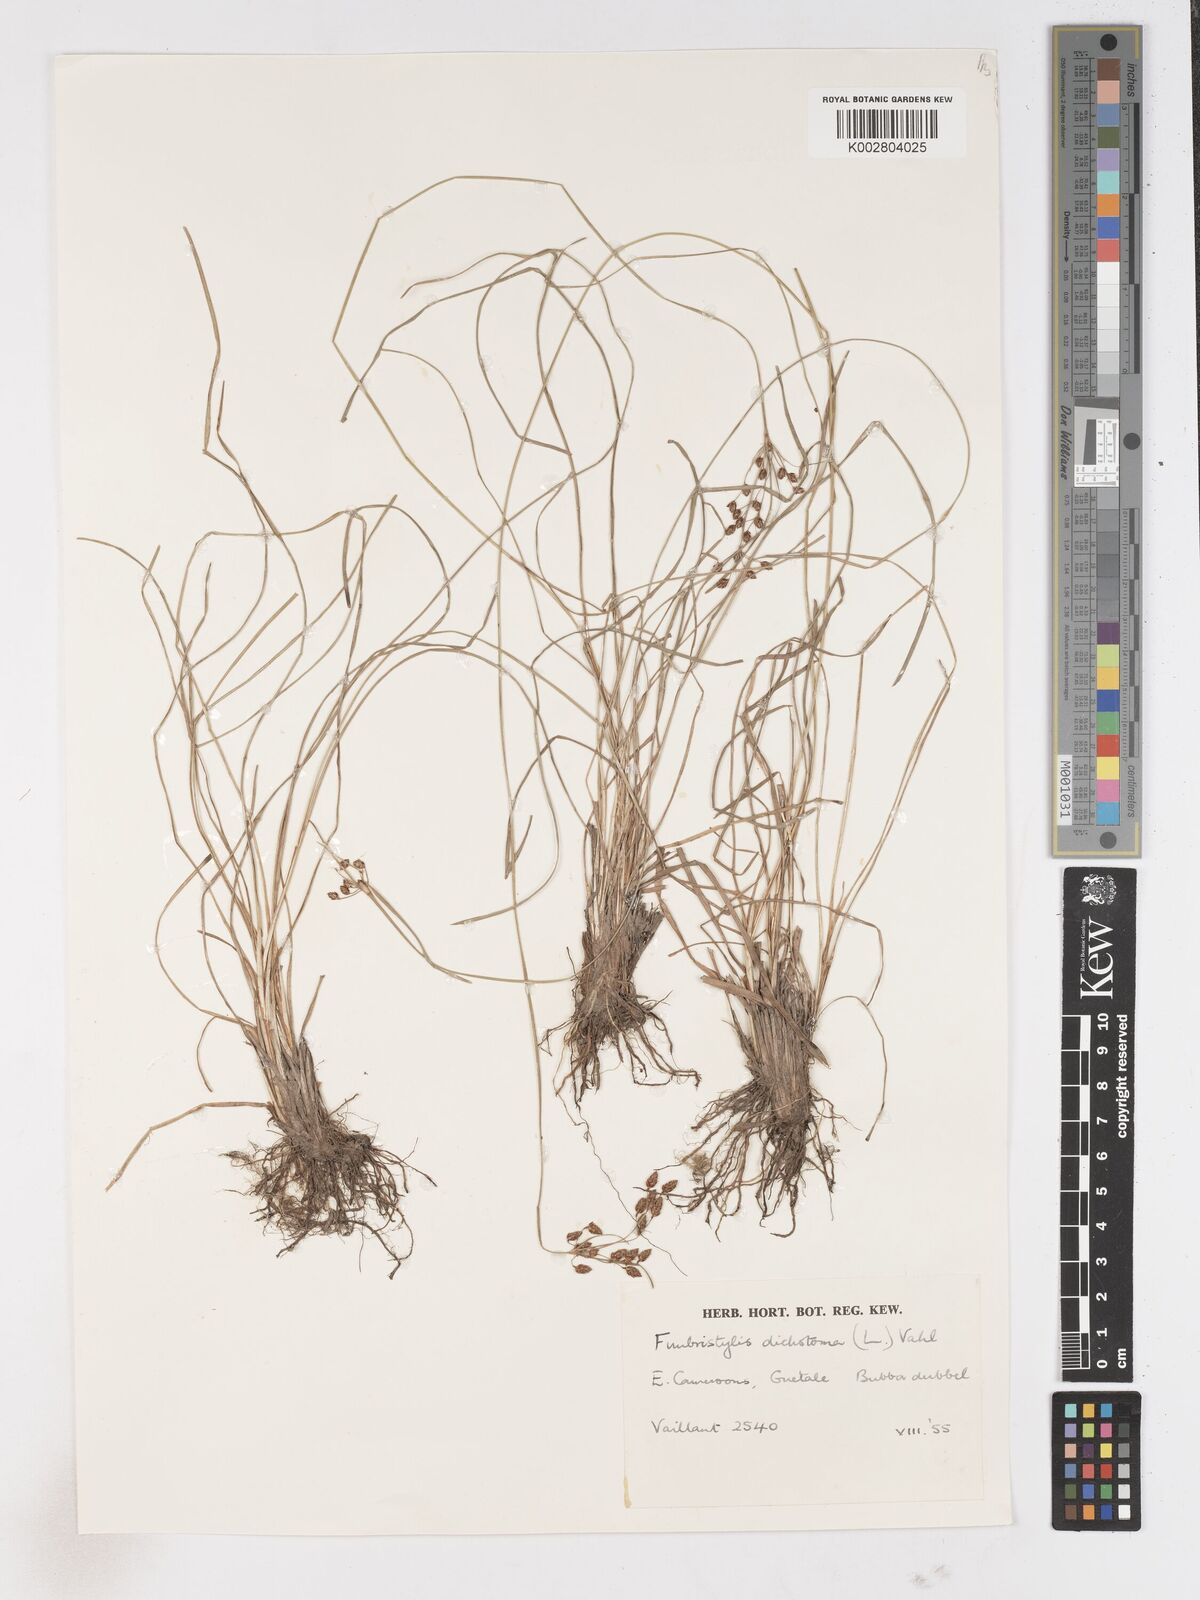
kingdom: Plantae
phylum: Tracheophyta
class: Liliopsida
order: Poales
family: Cyperaceae
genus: Fimbristylis
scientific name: Fimbristylis dichotoma
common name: Forked fimbry
